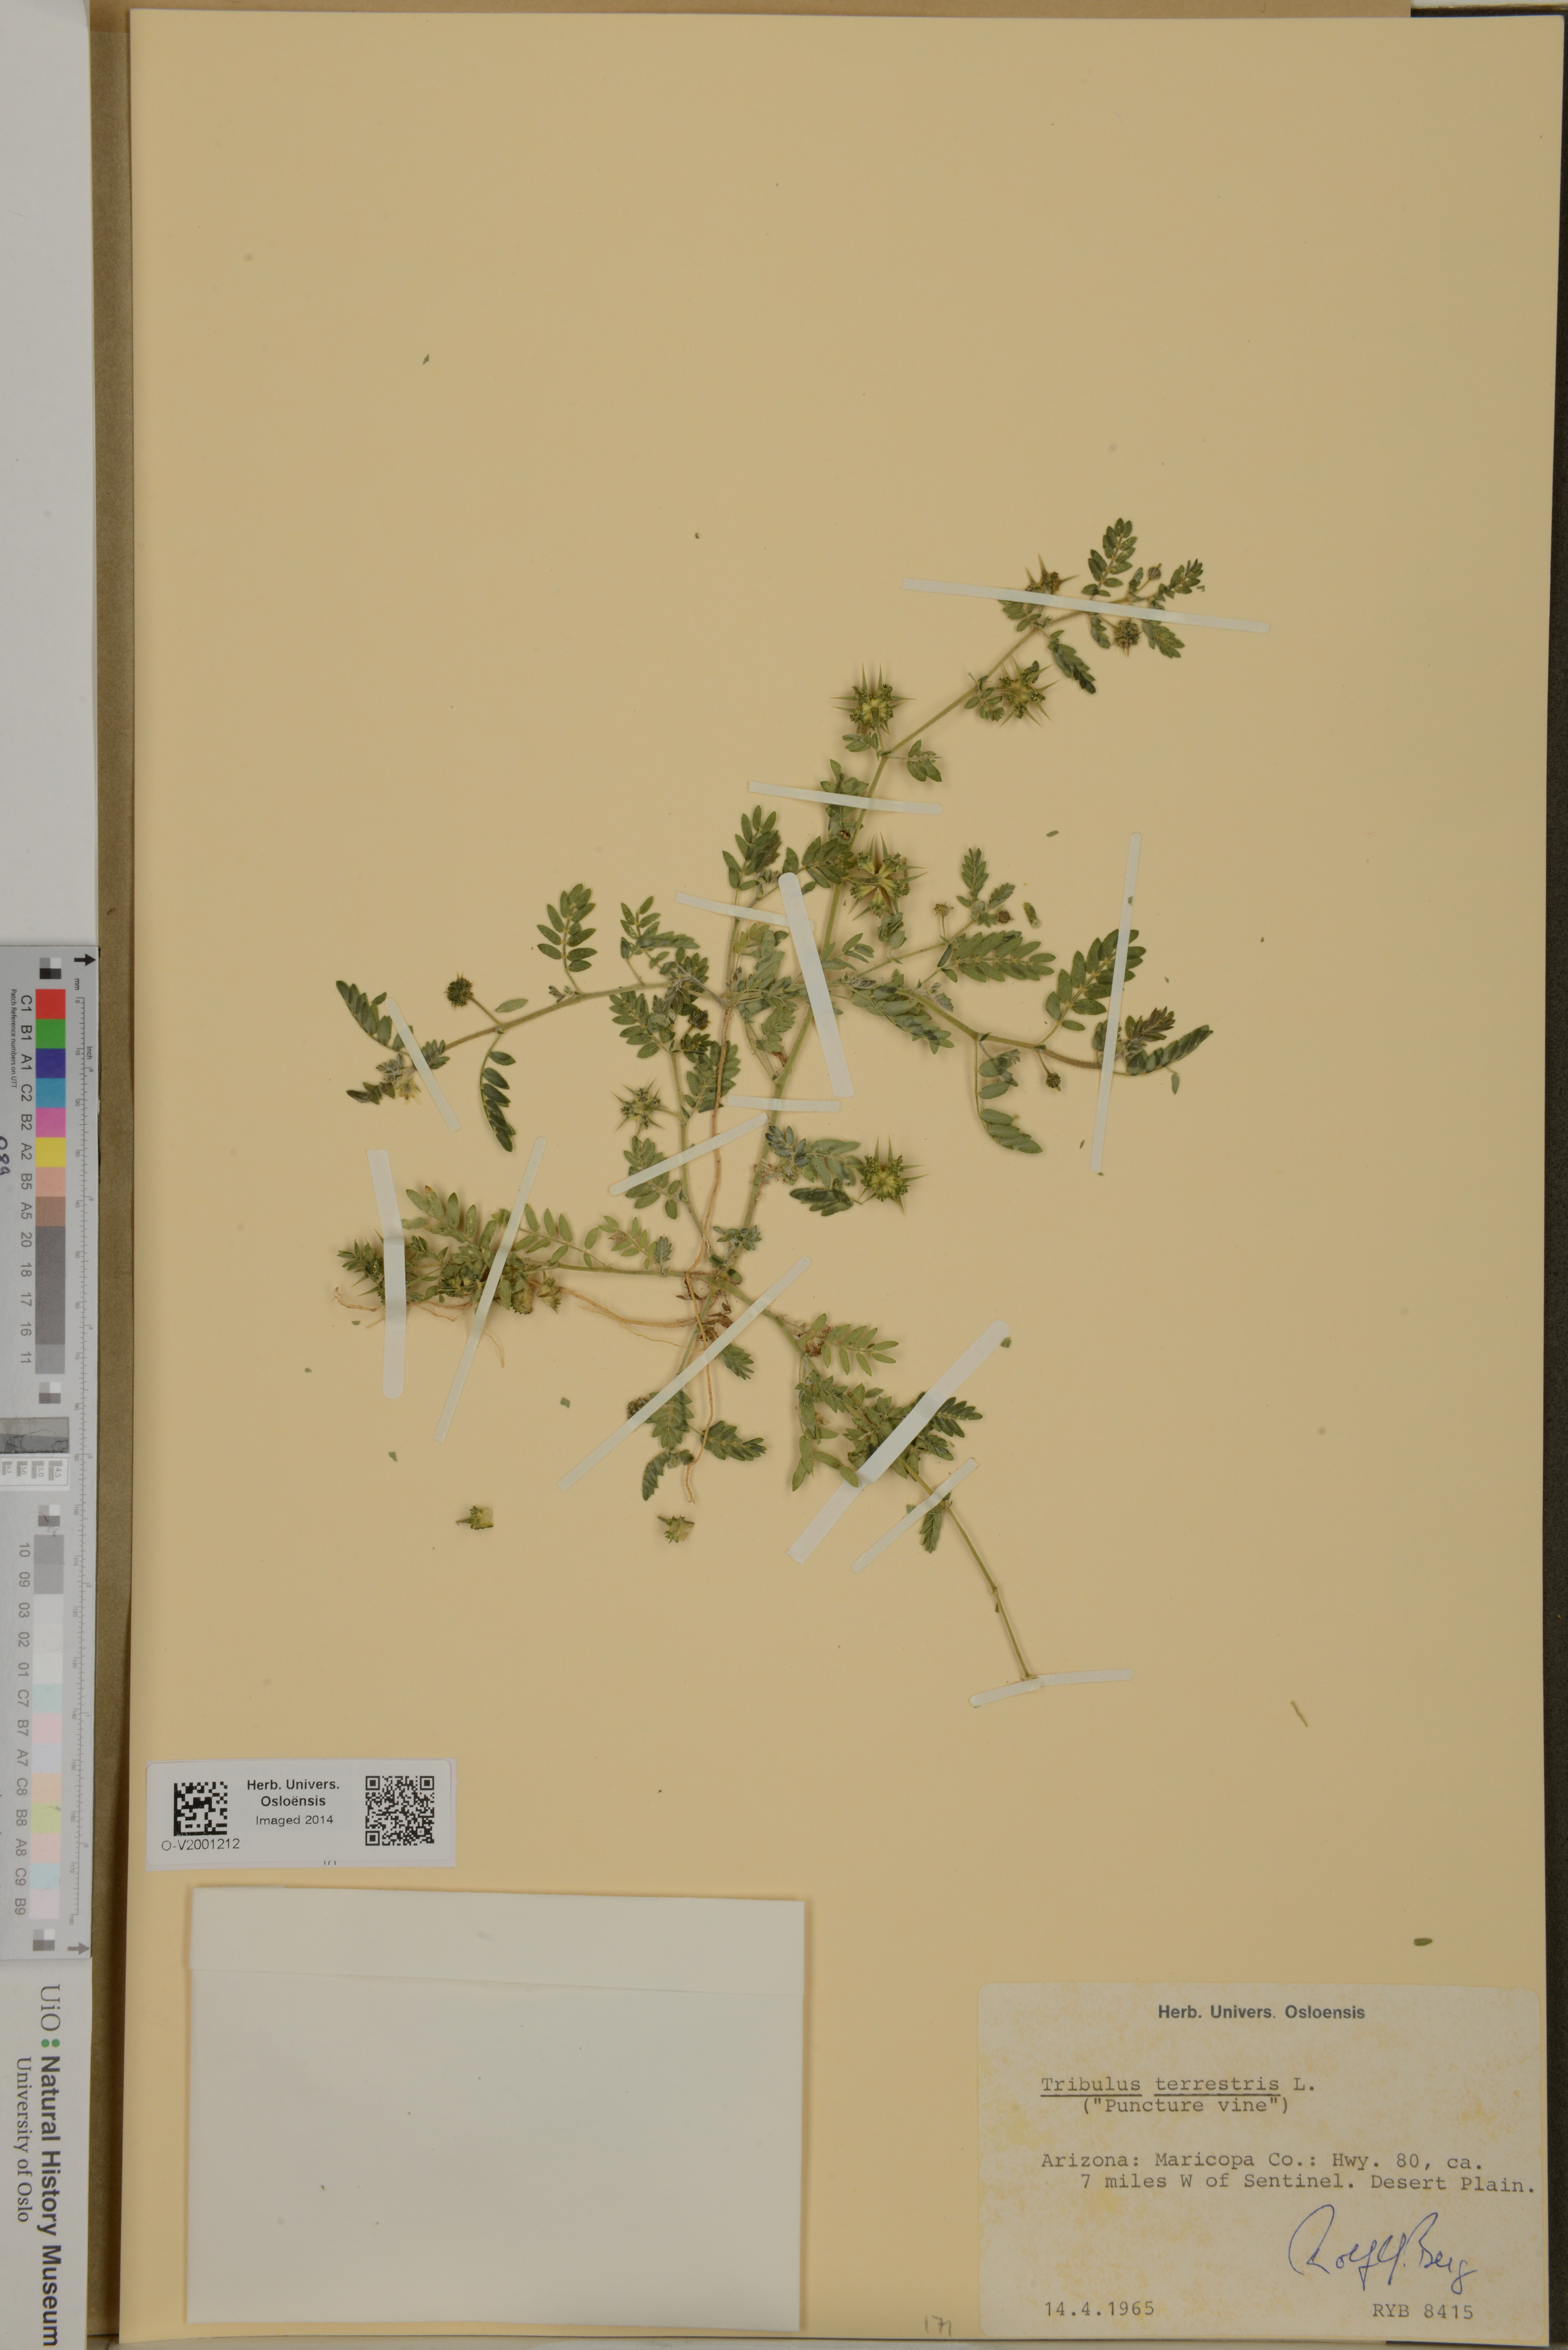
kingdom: Plantae
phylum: Tracheophyta
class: Magnoliopsida
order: Zygophyllales
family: Zygophyllaceae
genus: Tribulus
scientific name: Tribulus terrestris
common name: Puncturevine
